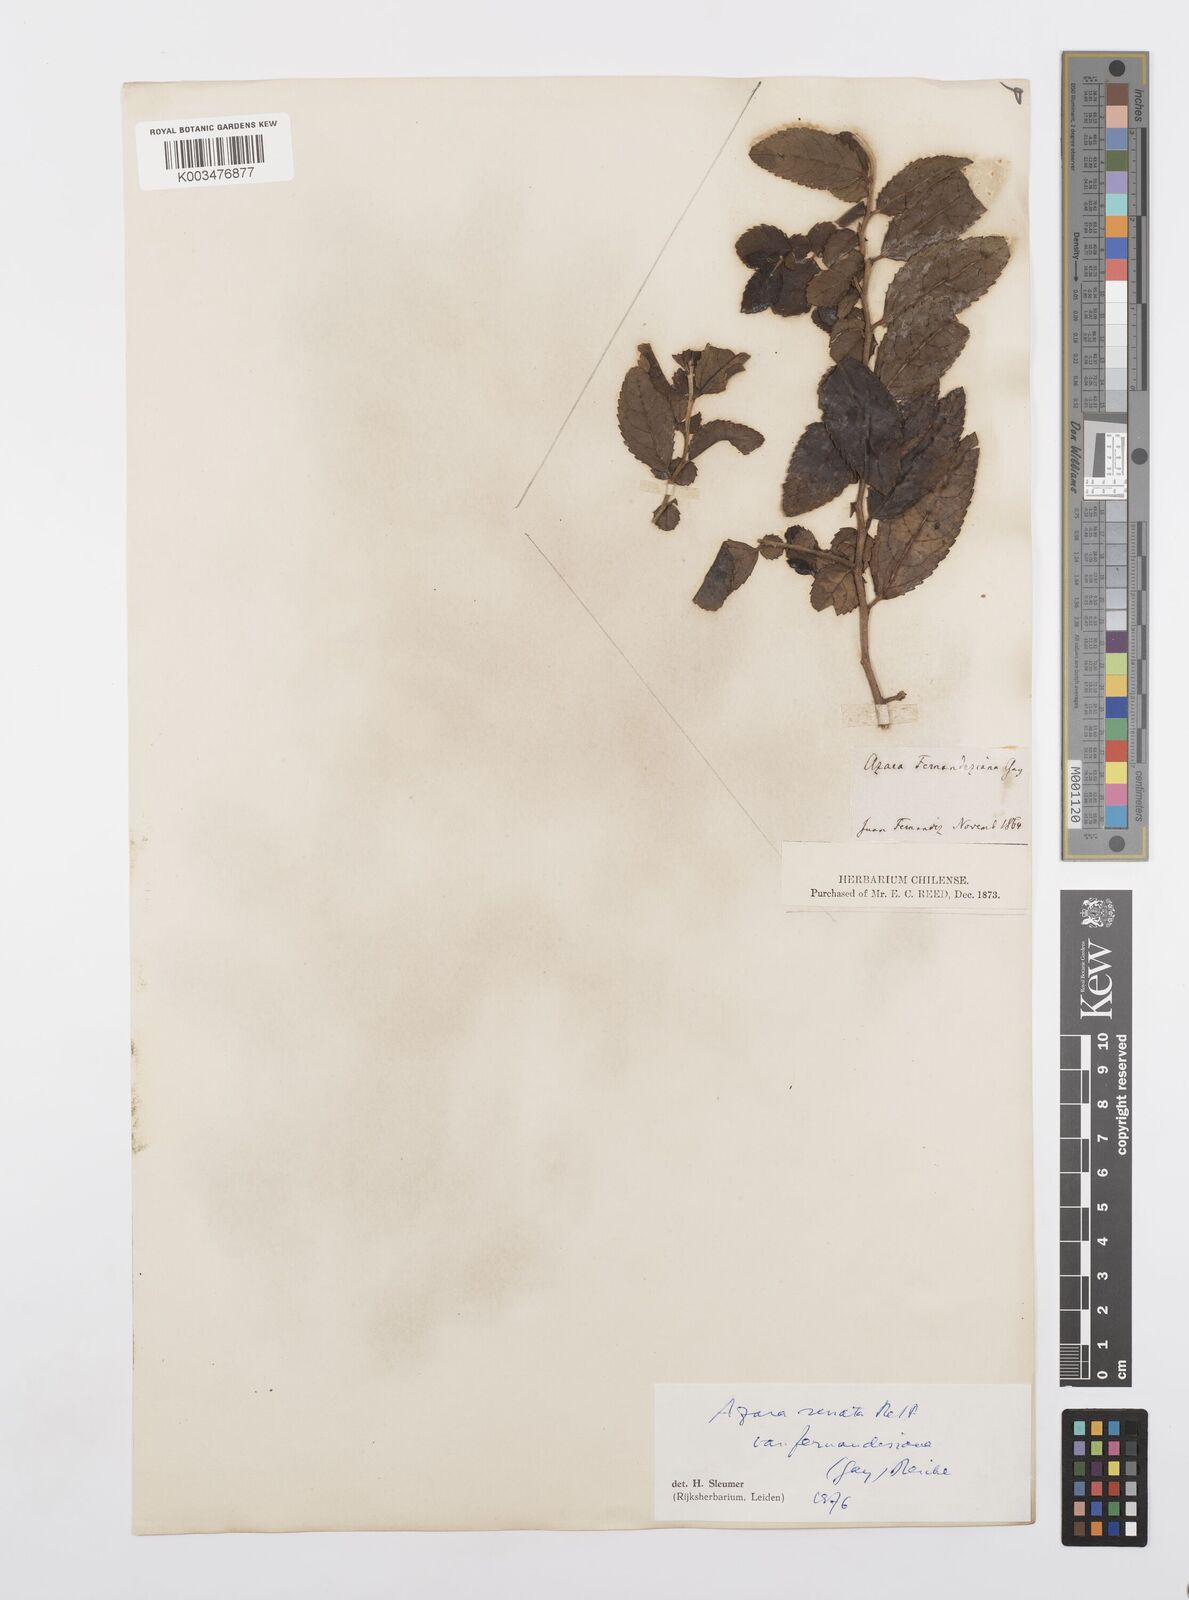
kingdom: Plantae
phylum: Tracheophyta
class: Magnoliopsida
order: Malpighiales
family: Salicaceae
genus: Azara
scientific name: Azara serrata
